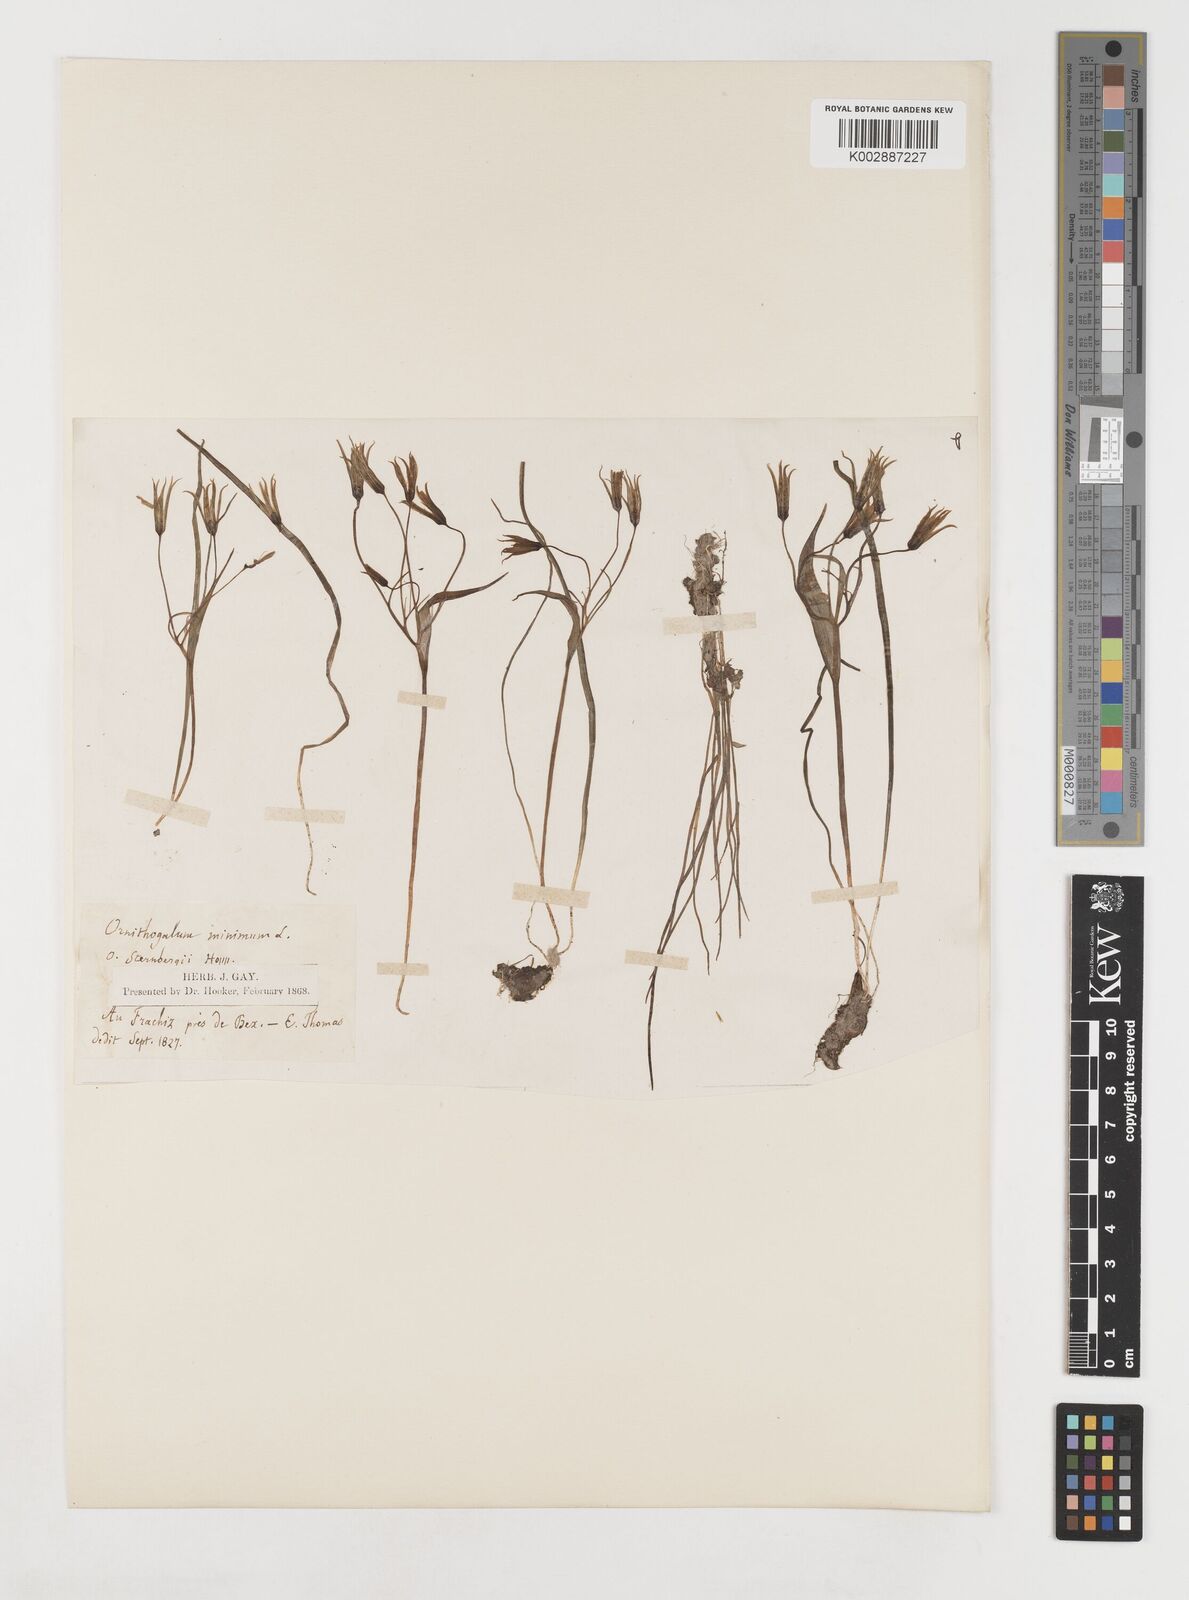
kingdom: Plantae
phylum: Tracheophyta
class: Liliopsida
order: Liliales
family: Liliaceae
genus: Gagea
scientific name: Gagea minima
